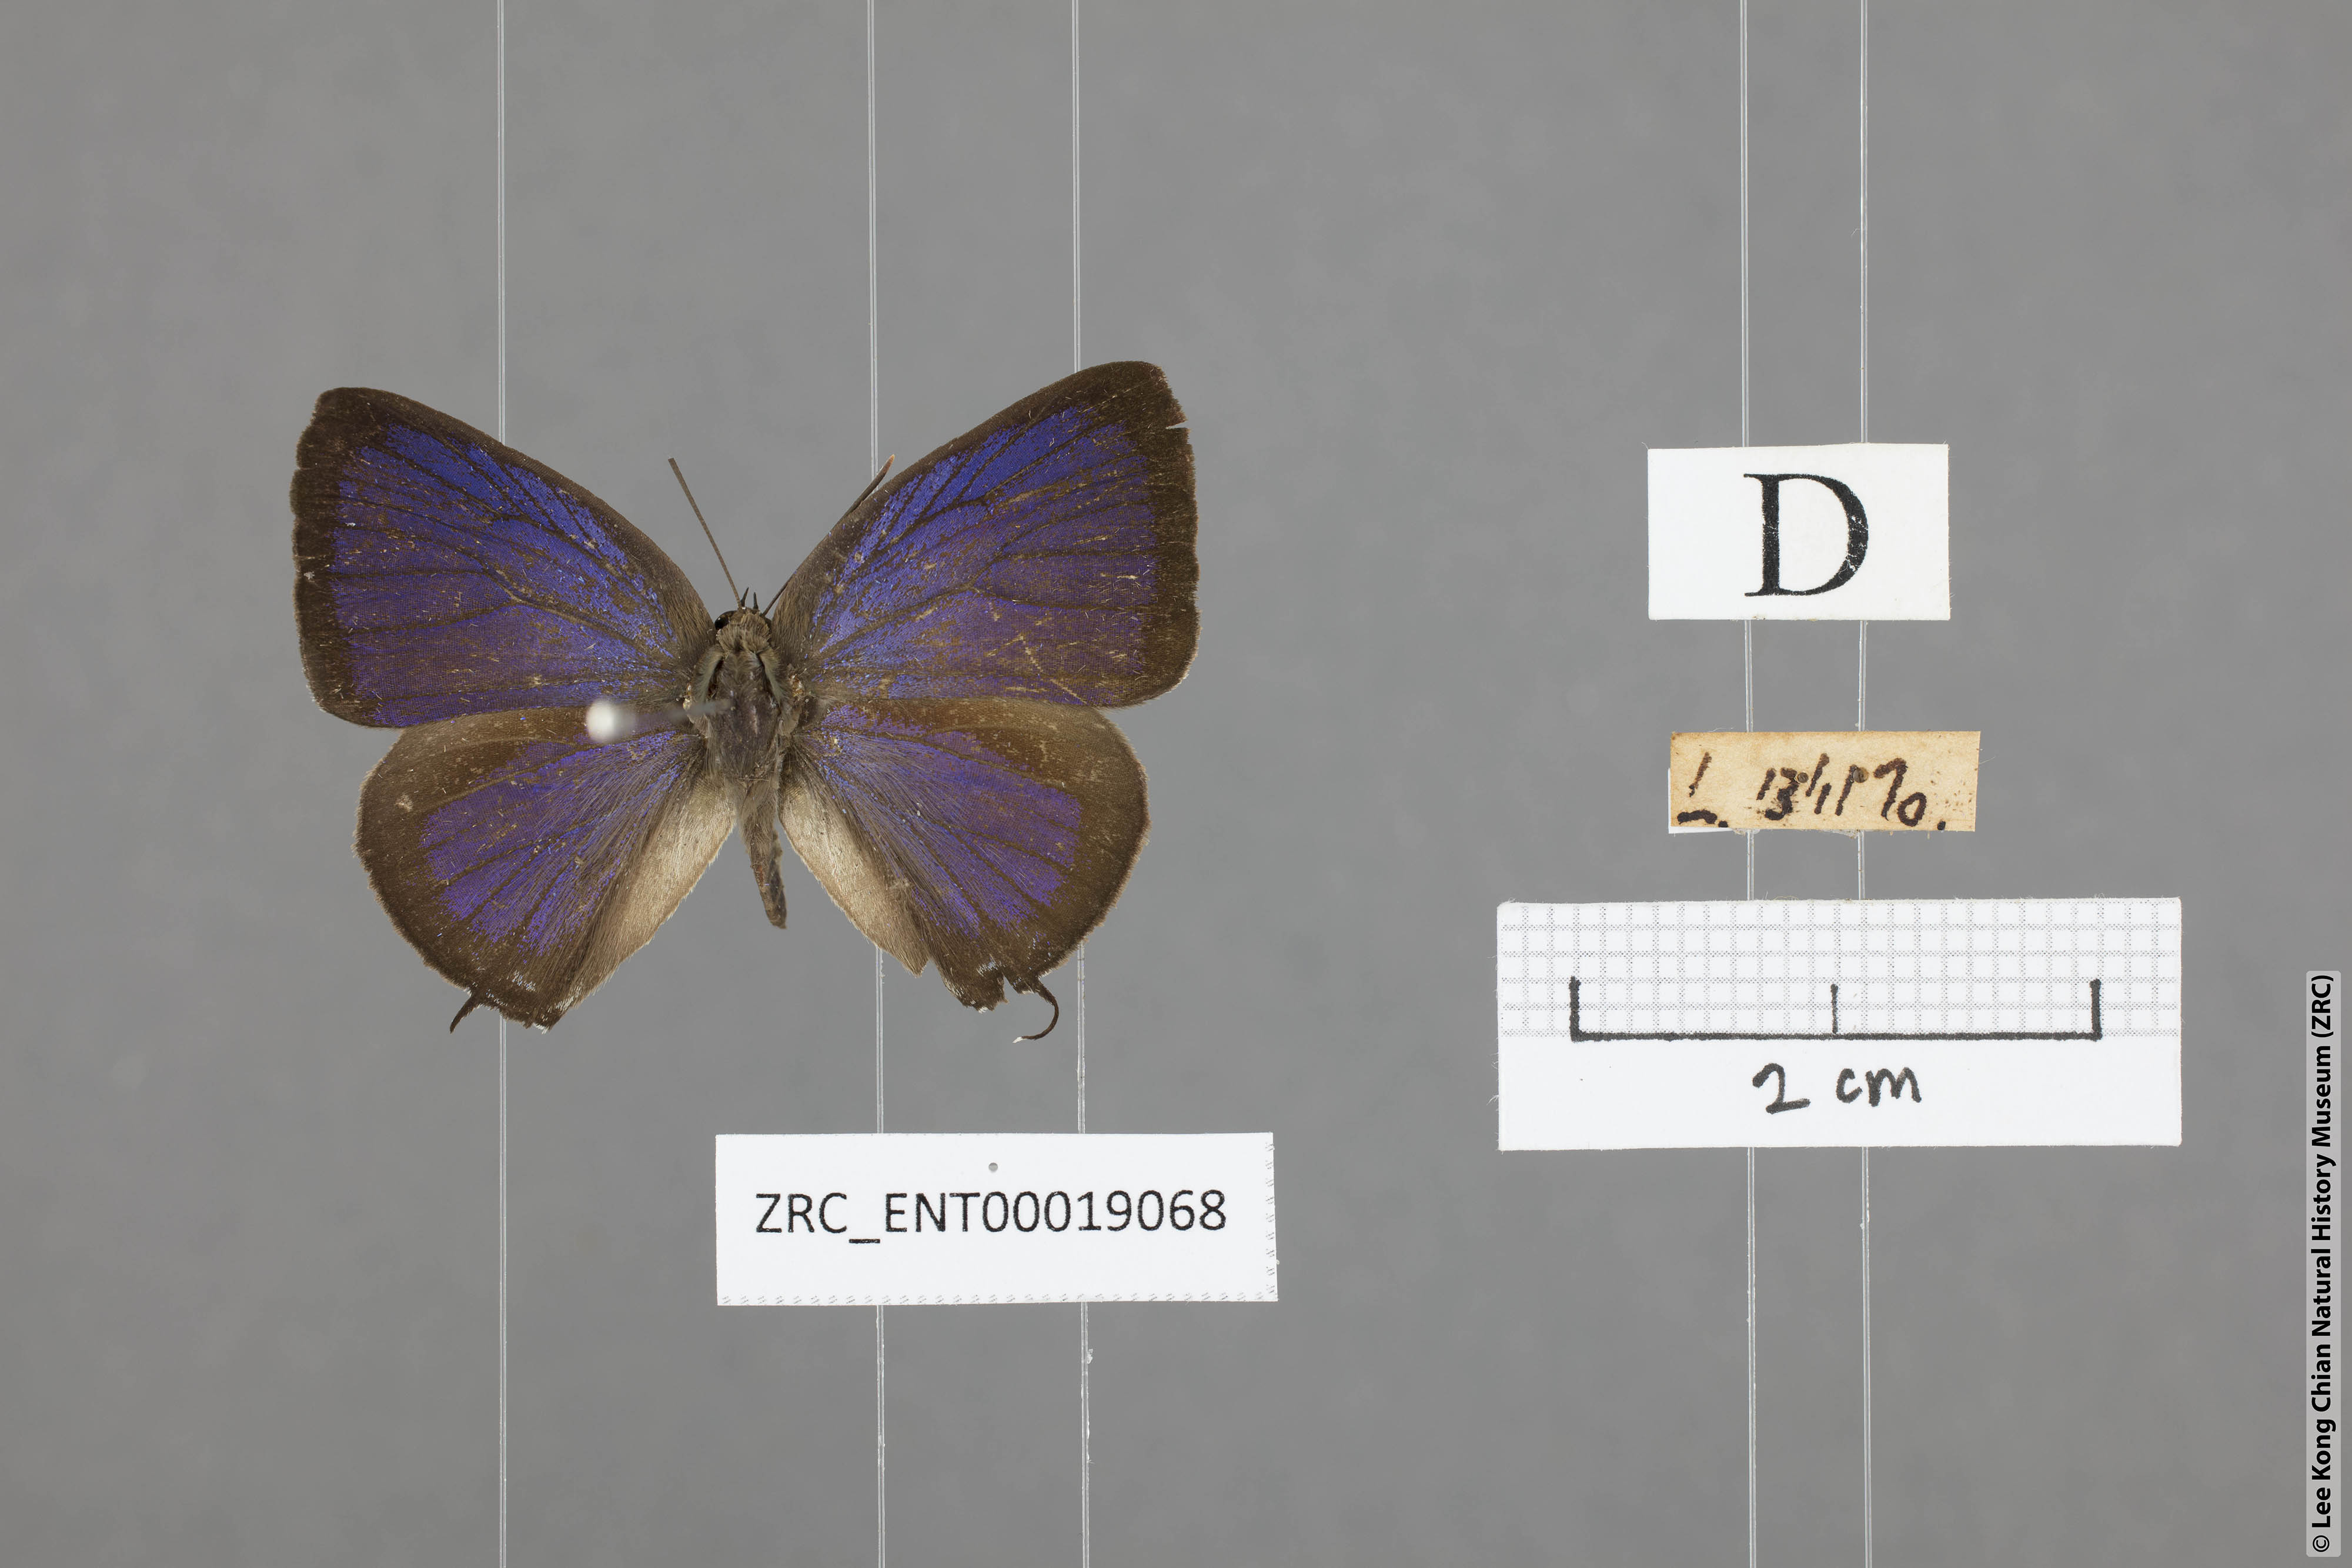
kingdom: Animalia
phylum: Arthropoda
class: Insecta
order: Lepidoptera
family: Lycaenidae
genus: Arhopala
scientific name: Arhopala aida
